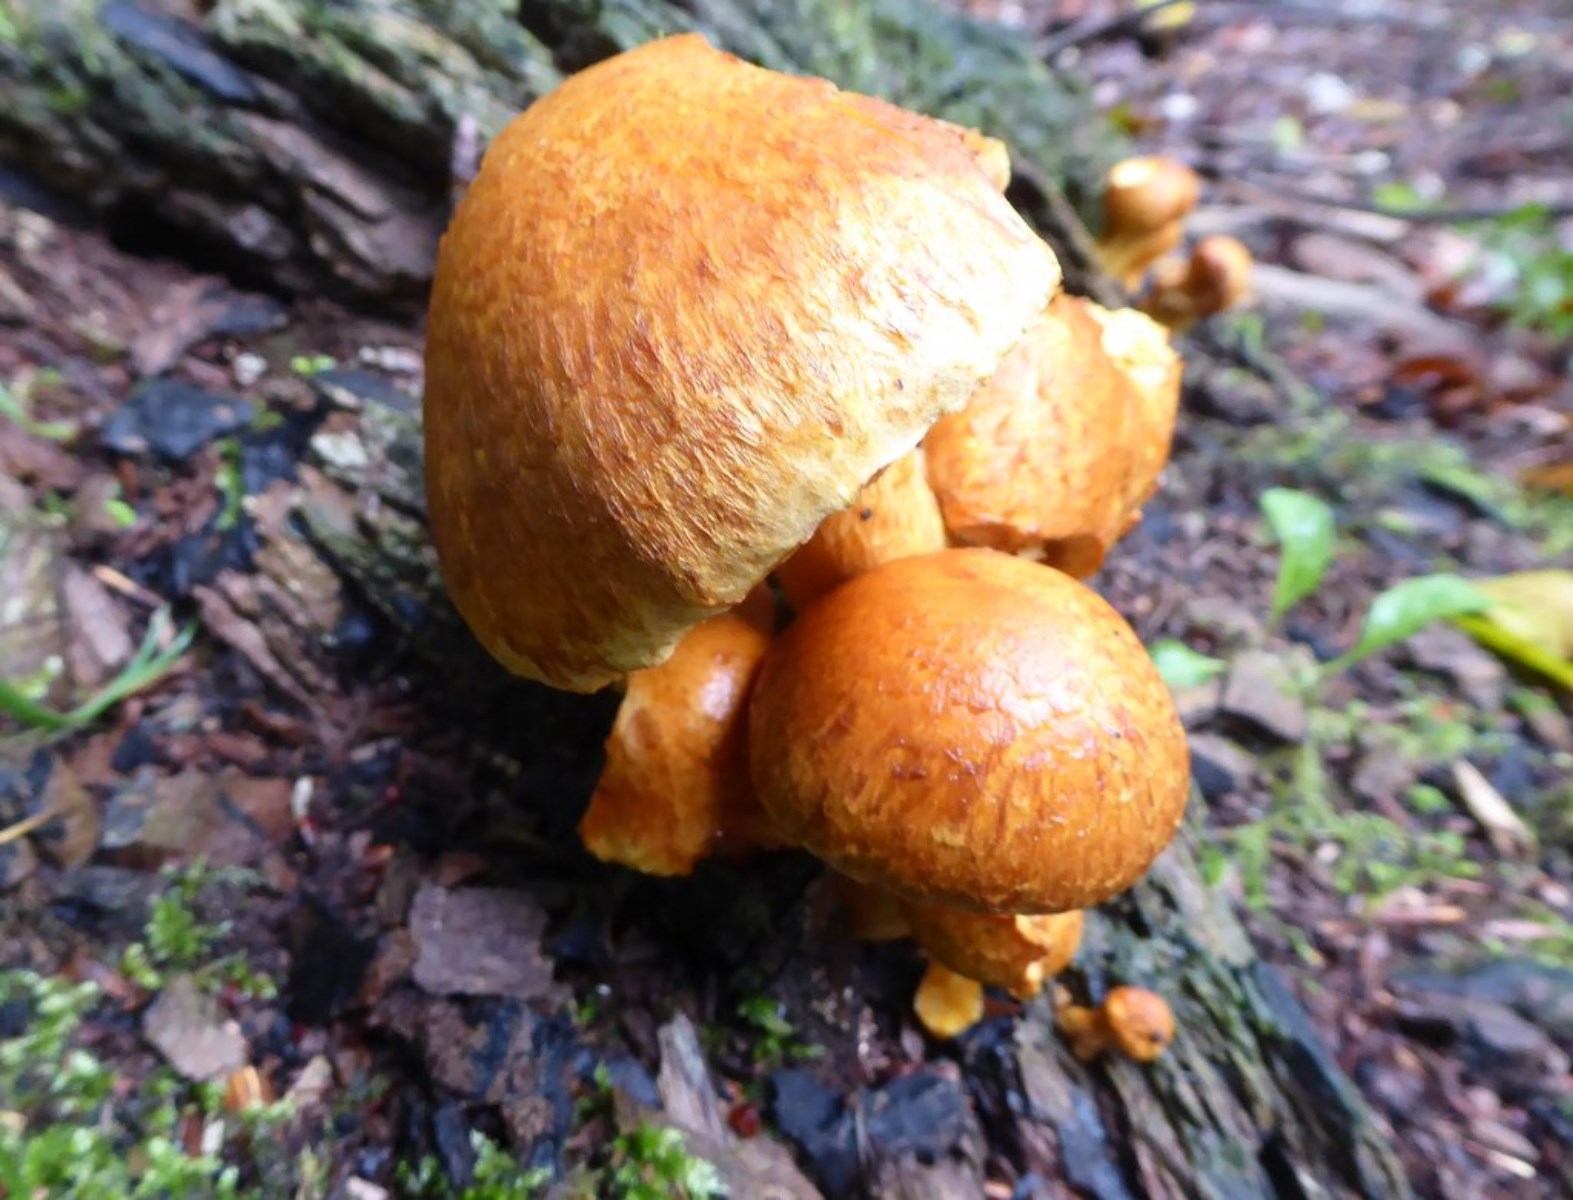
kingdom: Fungi
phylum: Basidiomycota
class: Agaricomycetes
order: Agaricales
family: Hymenogastraceae
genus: Gymnopilus
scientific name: Gymnopilus spectabilis
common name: fibret flammehat
